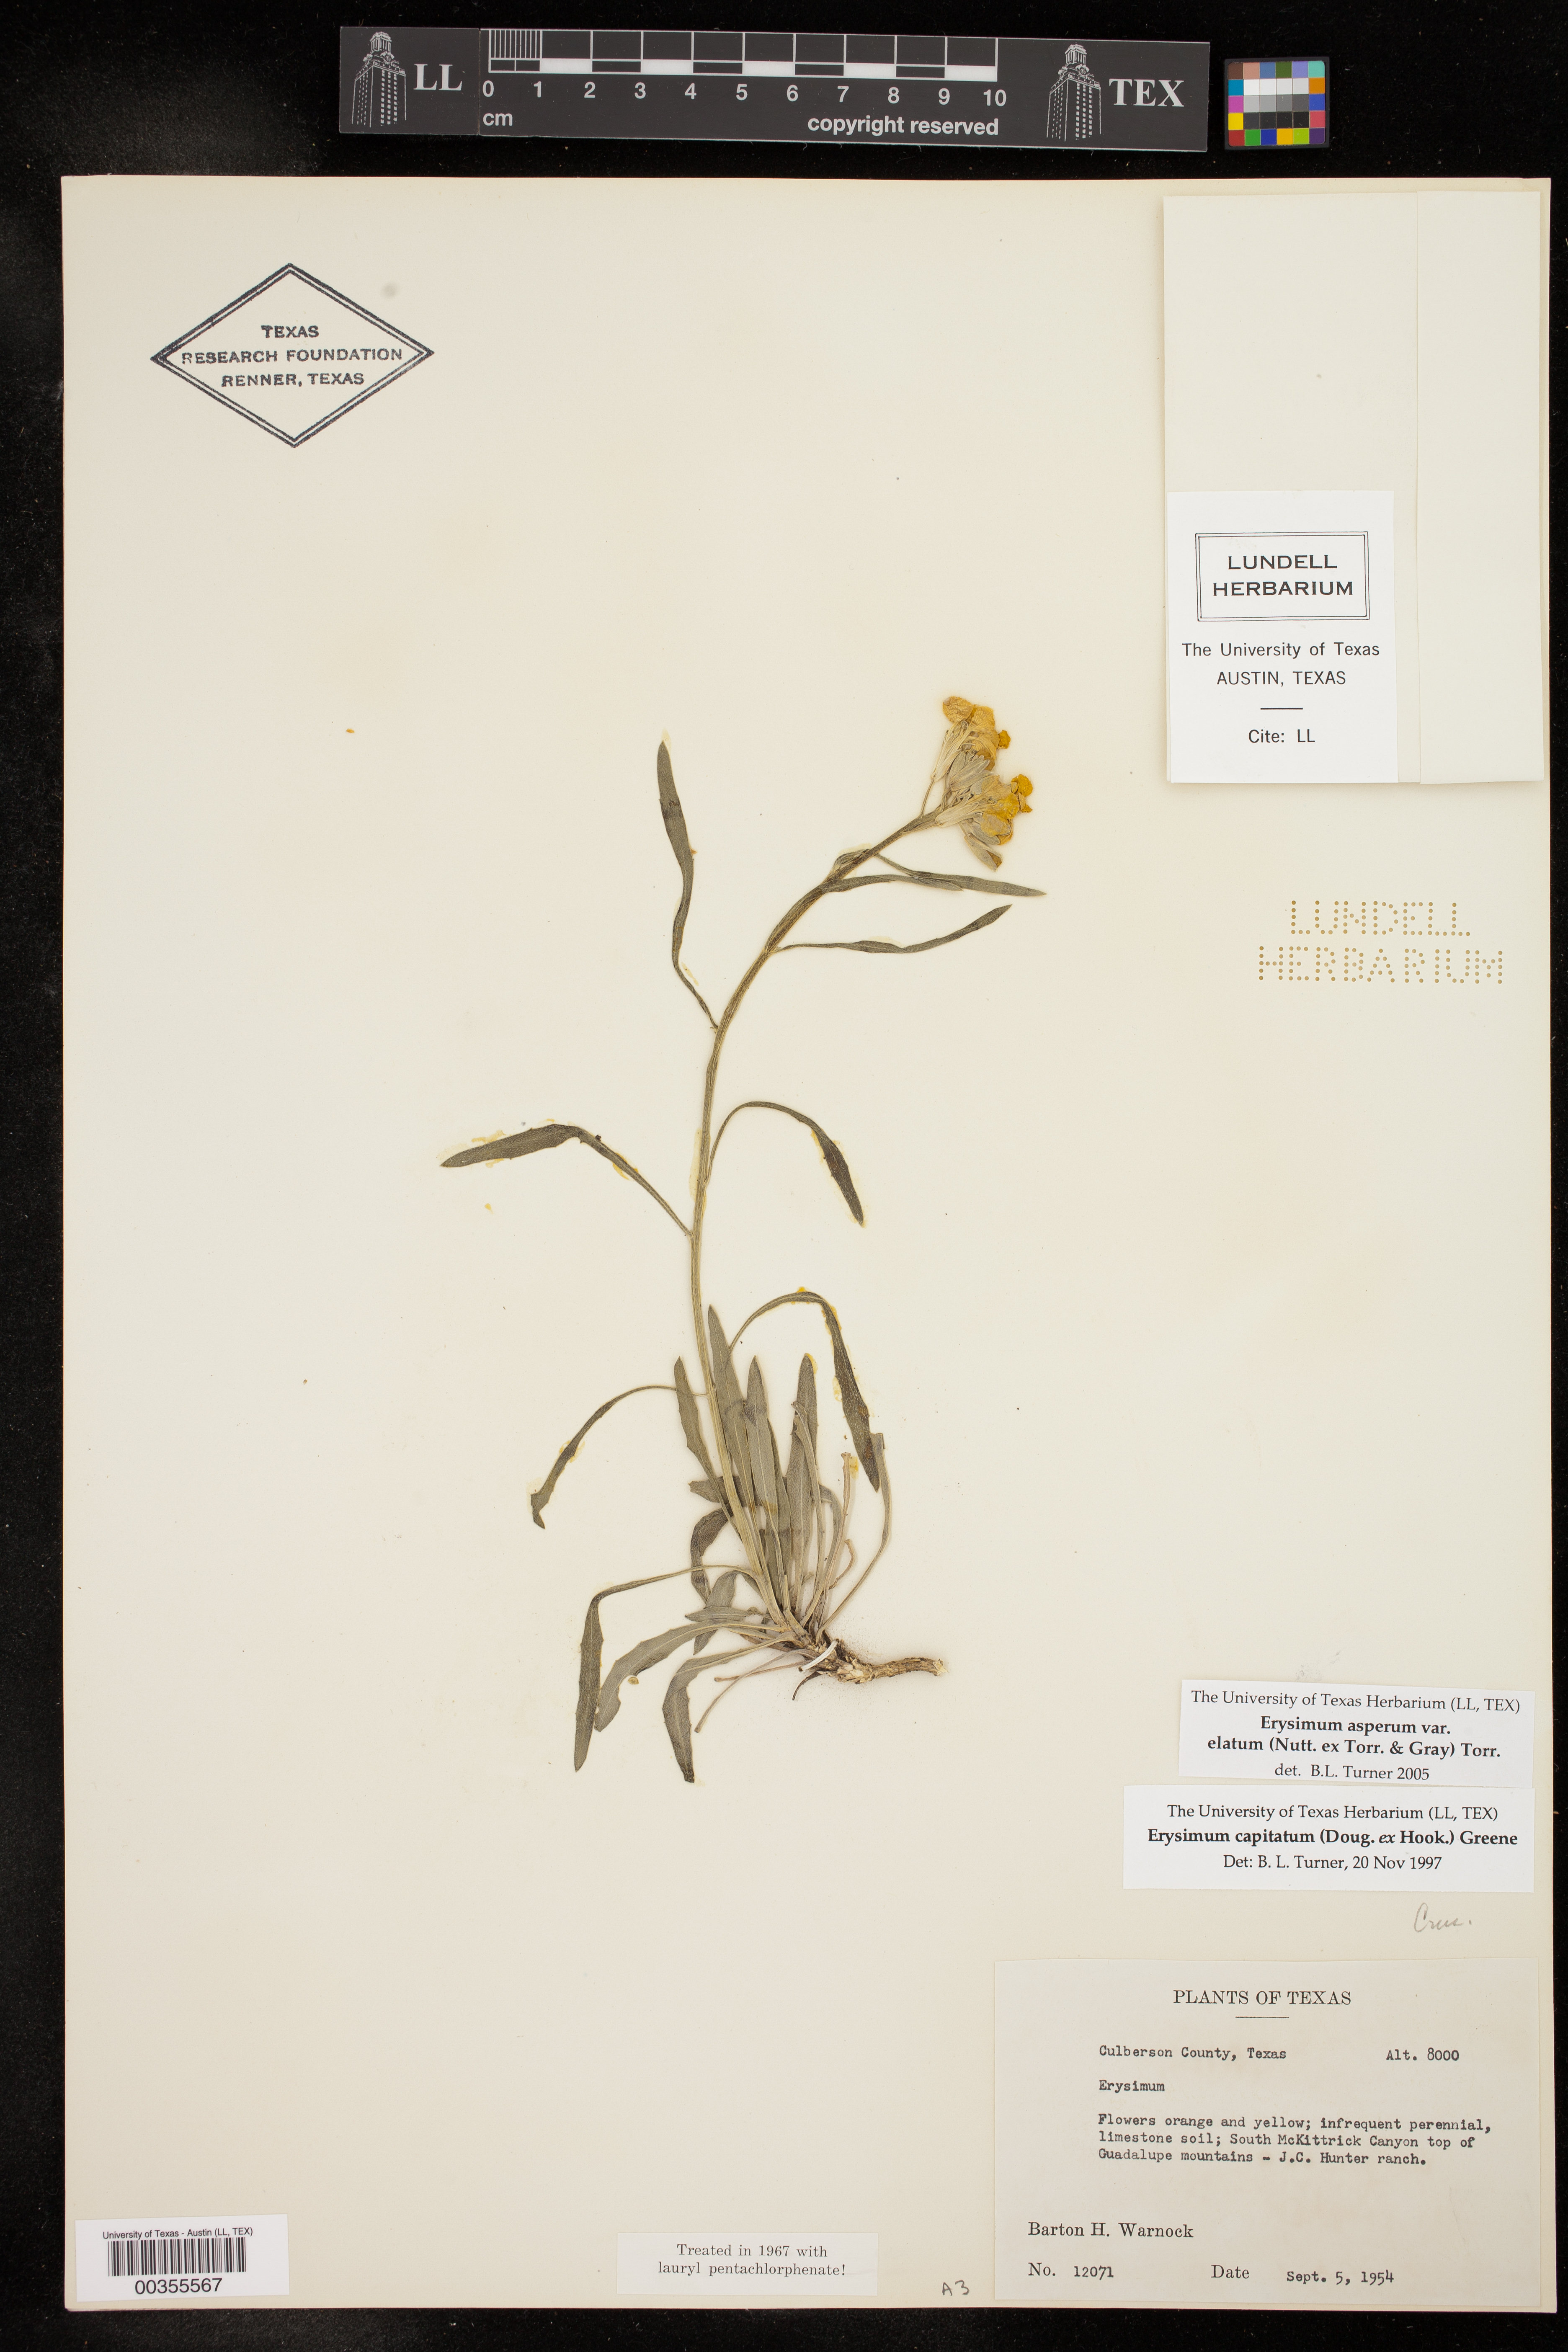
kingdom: Plantae
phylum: Tracheophyta
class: Magnoliopsida
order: Brassicales
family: Brassicaceae
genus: Erysimum
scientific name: Erysimum capitatum
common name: Western wallflower
